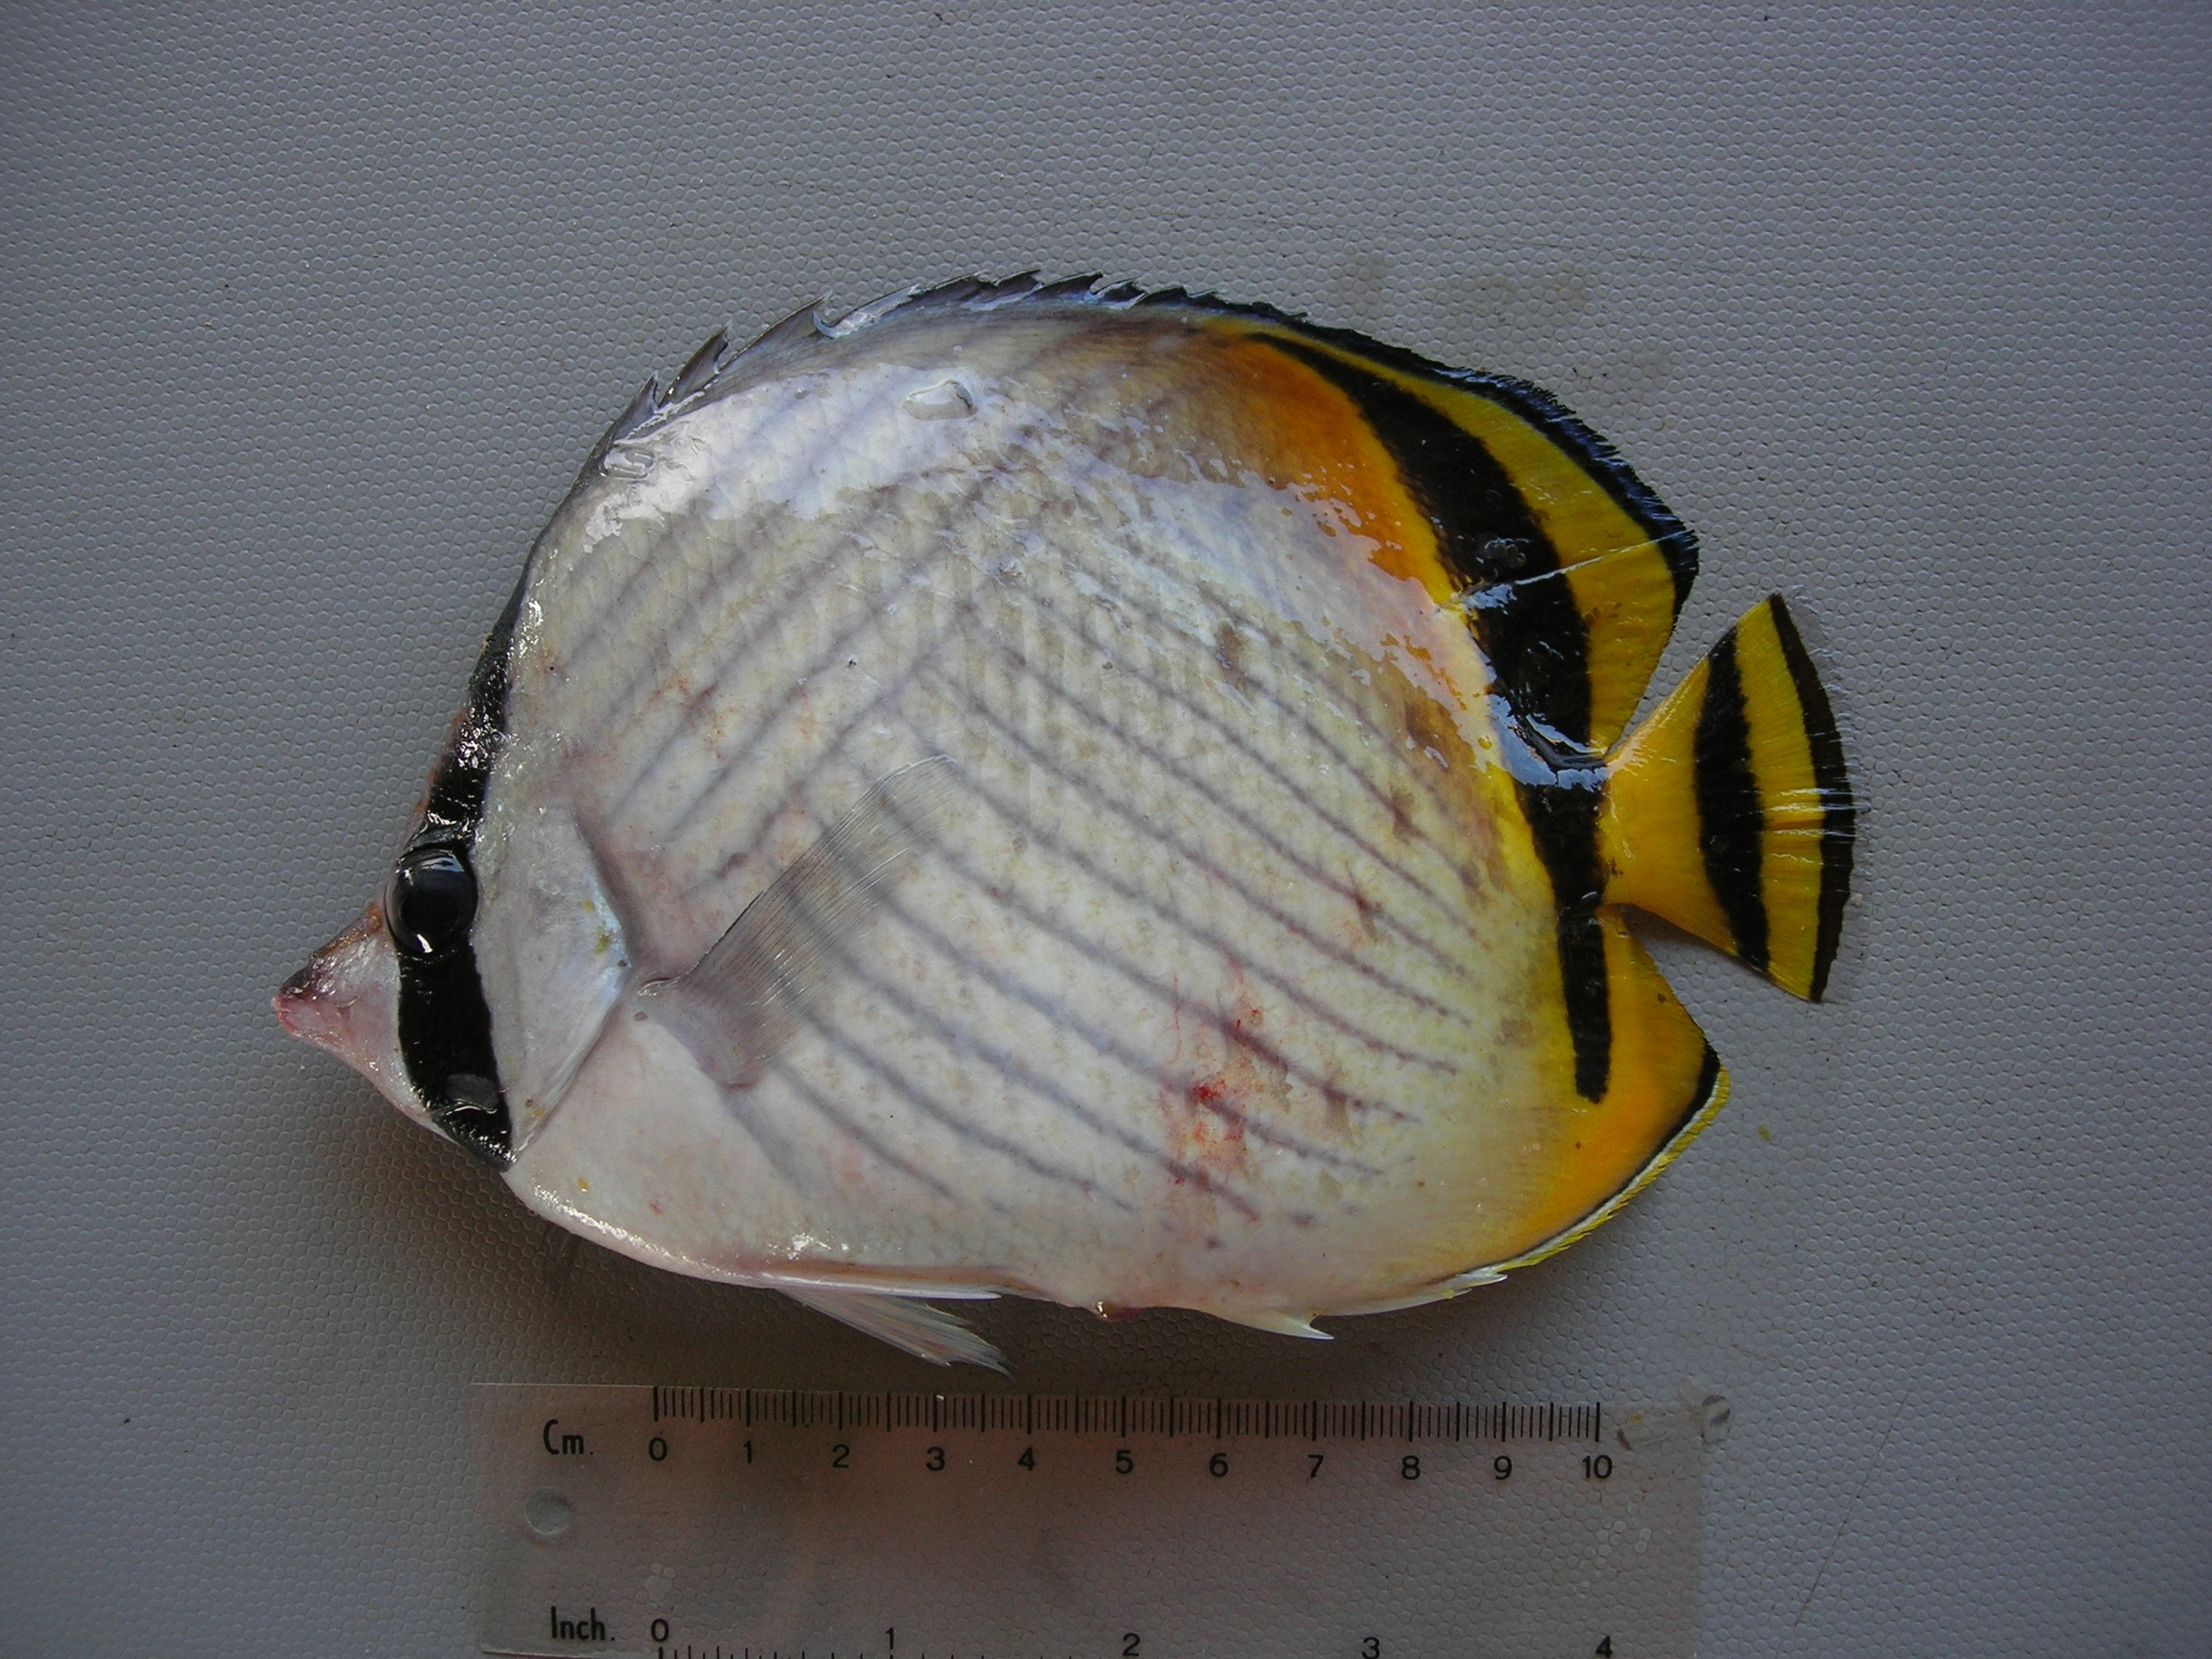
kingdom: Animalia
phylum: Chordata
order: Perciformes
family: Chaetodontidae
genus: Chaetodon
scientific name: Chaetodon vagabundus
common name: Vagabond butterflyfish
